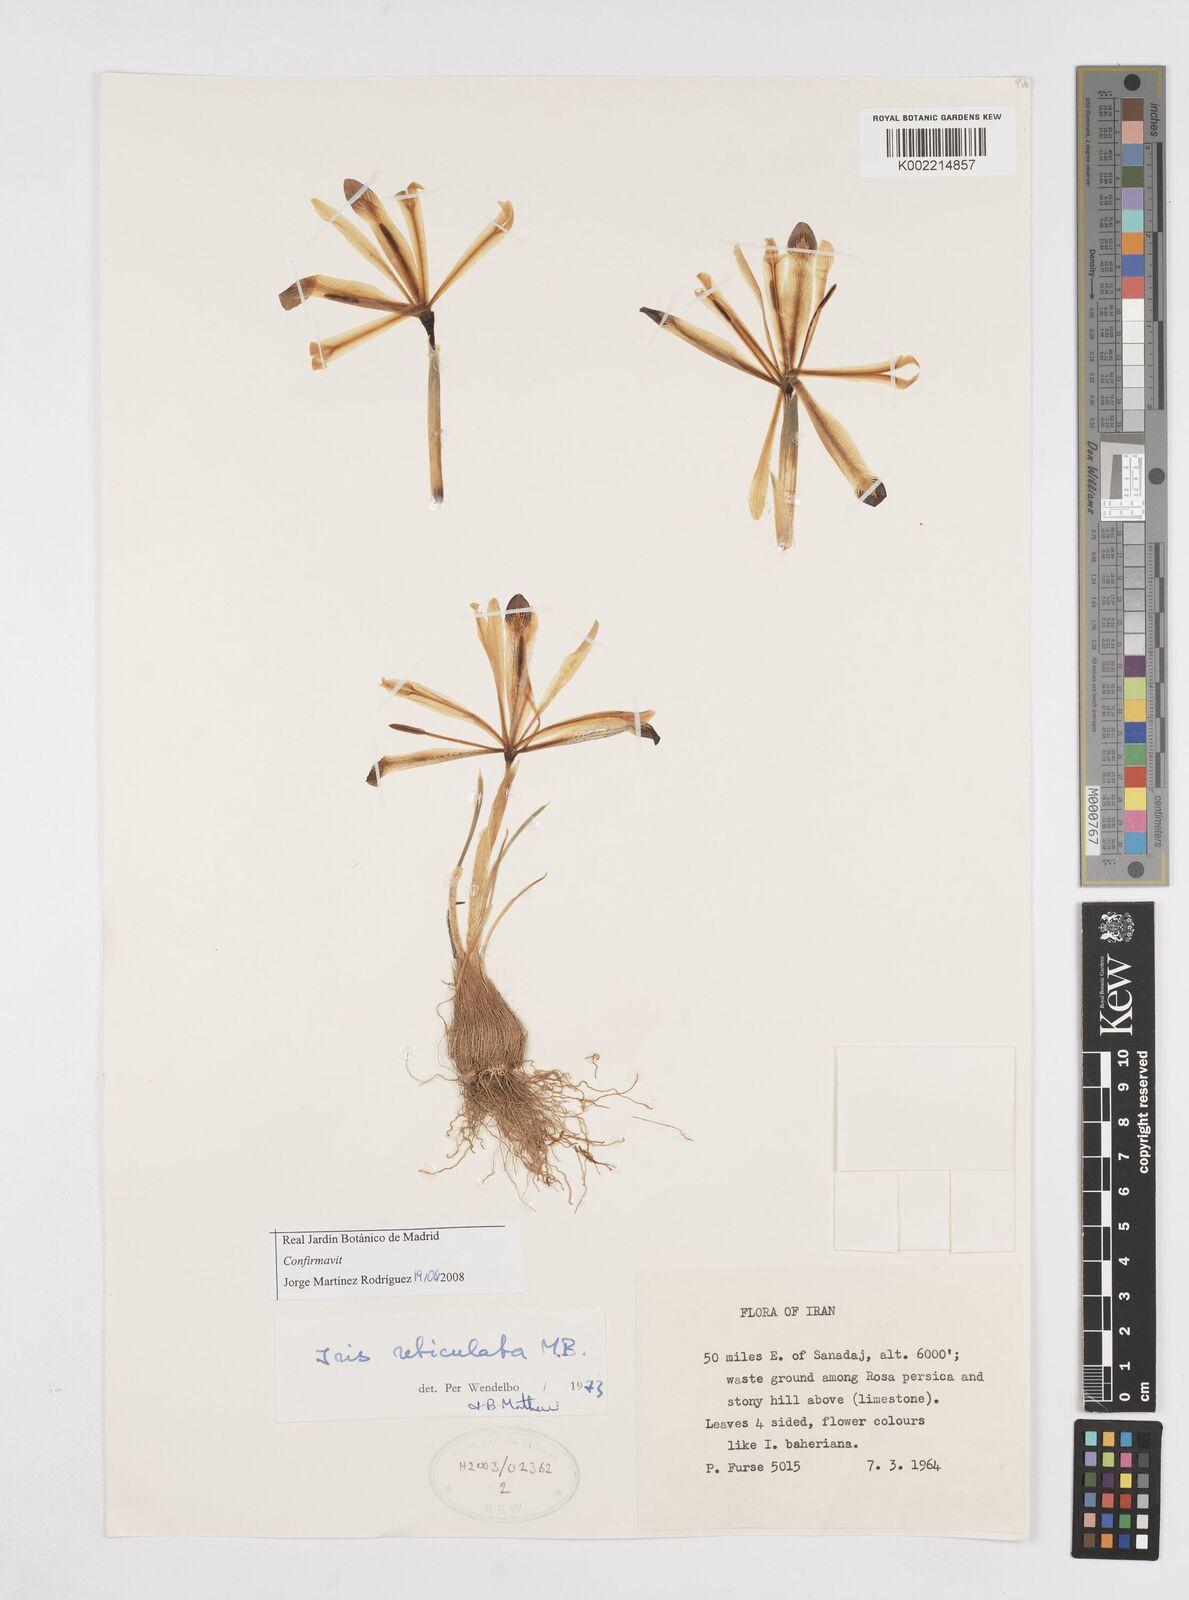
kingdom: Plantae
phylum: Tracheophyta
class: Liliopsida
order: Asparagales
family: Iridaceae
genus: Iris
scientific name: Iris reticulata
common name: Netted iris
